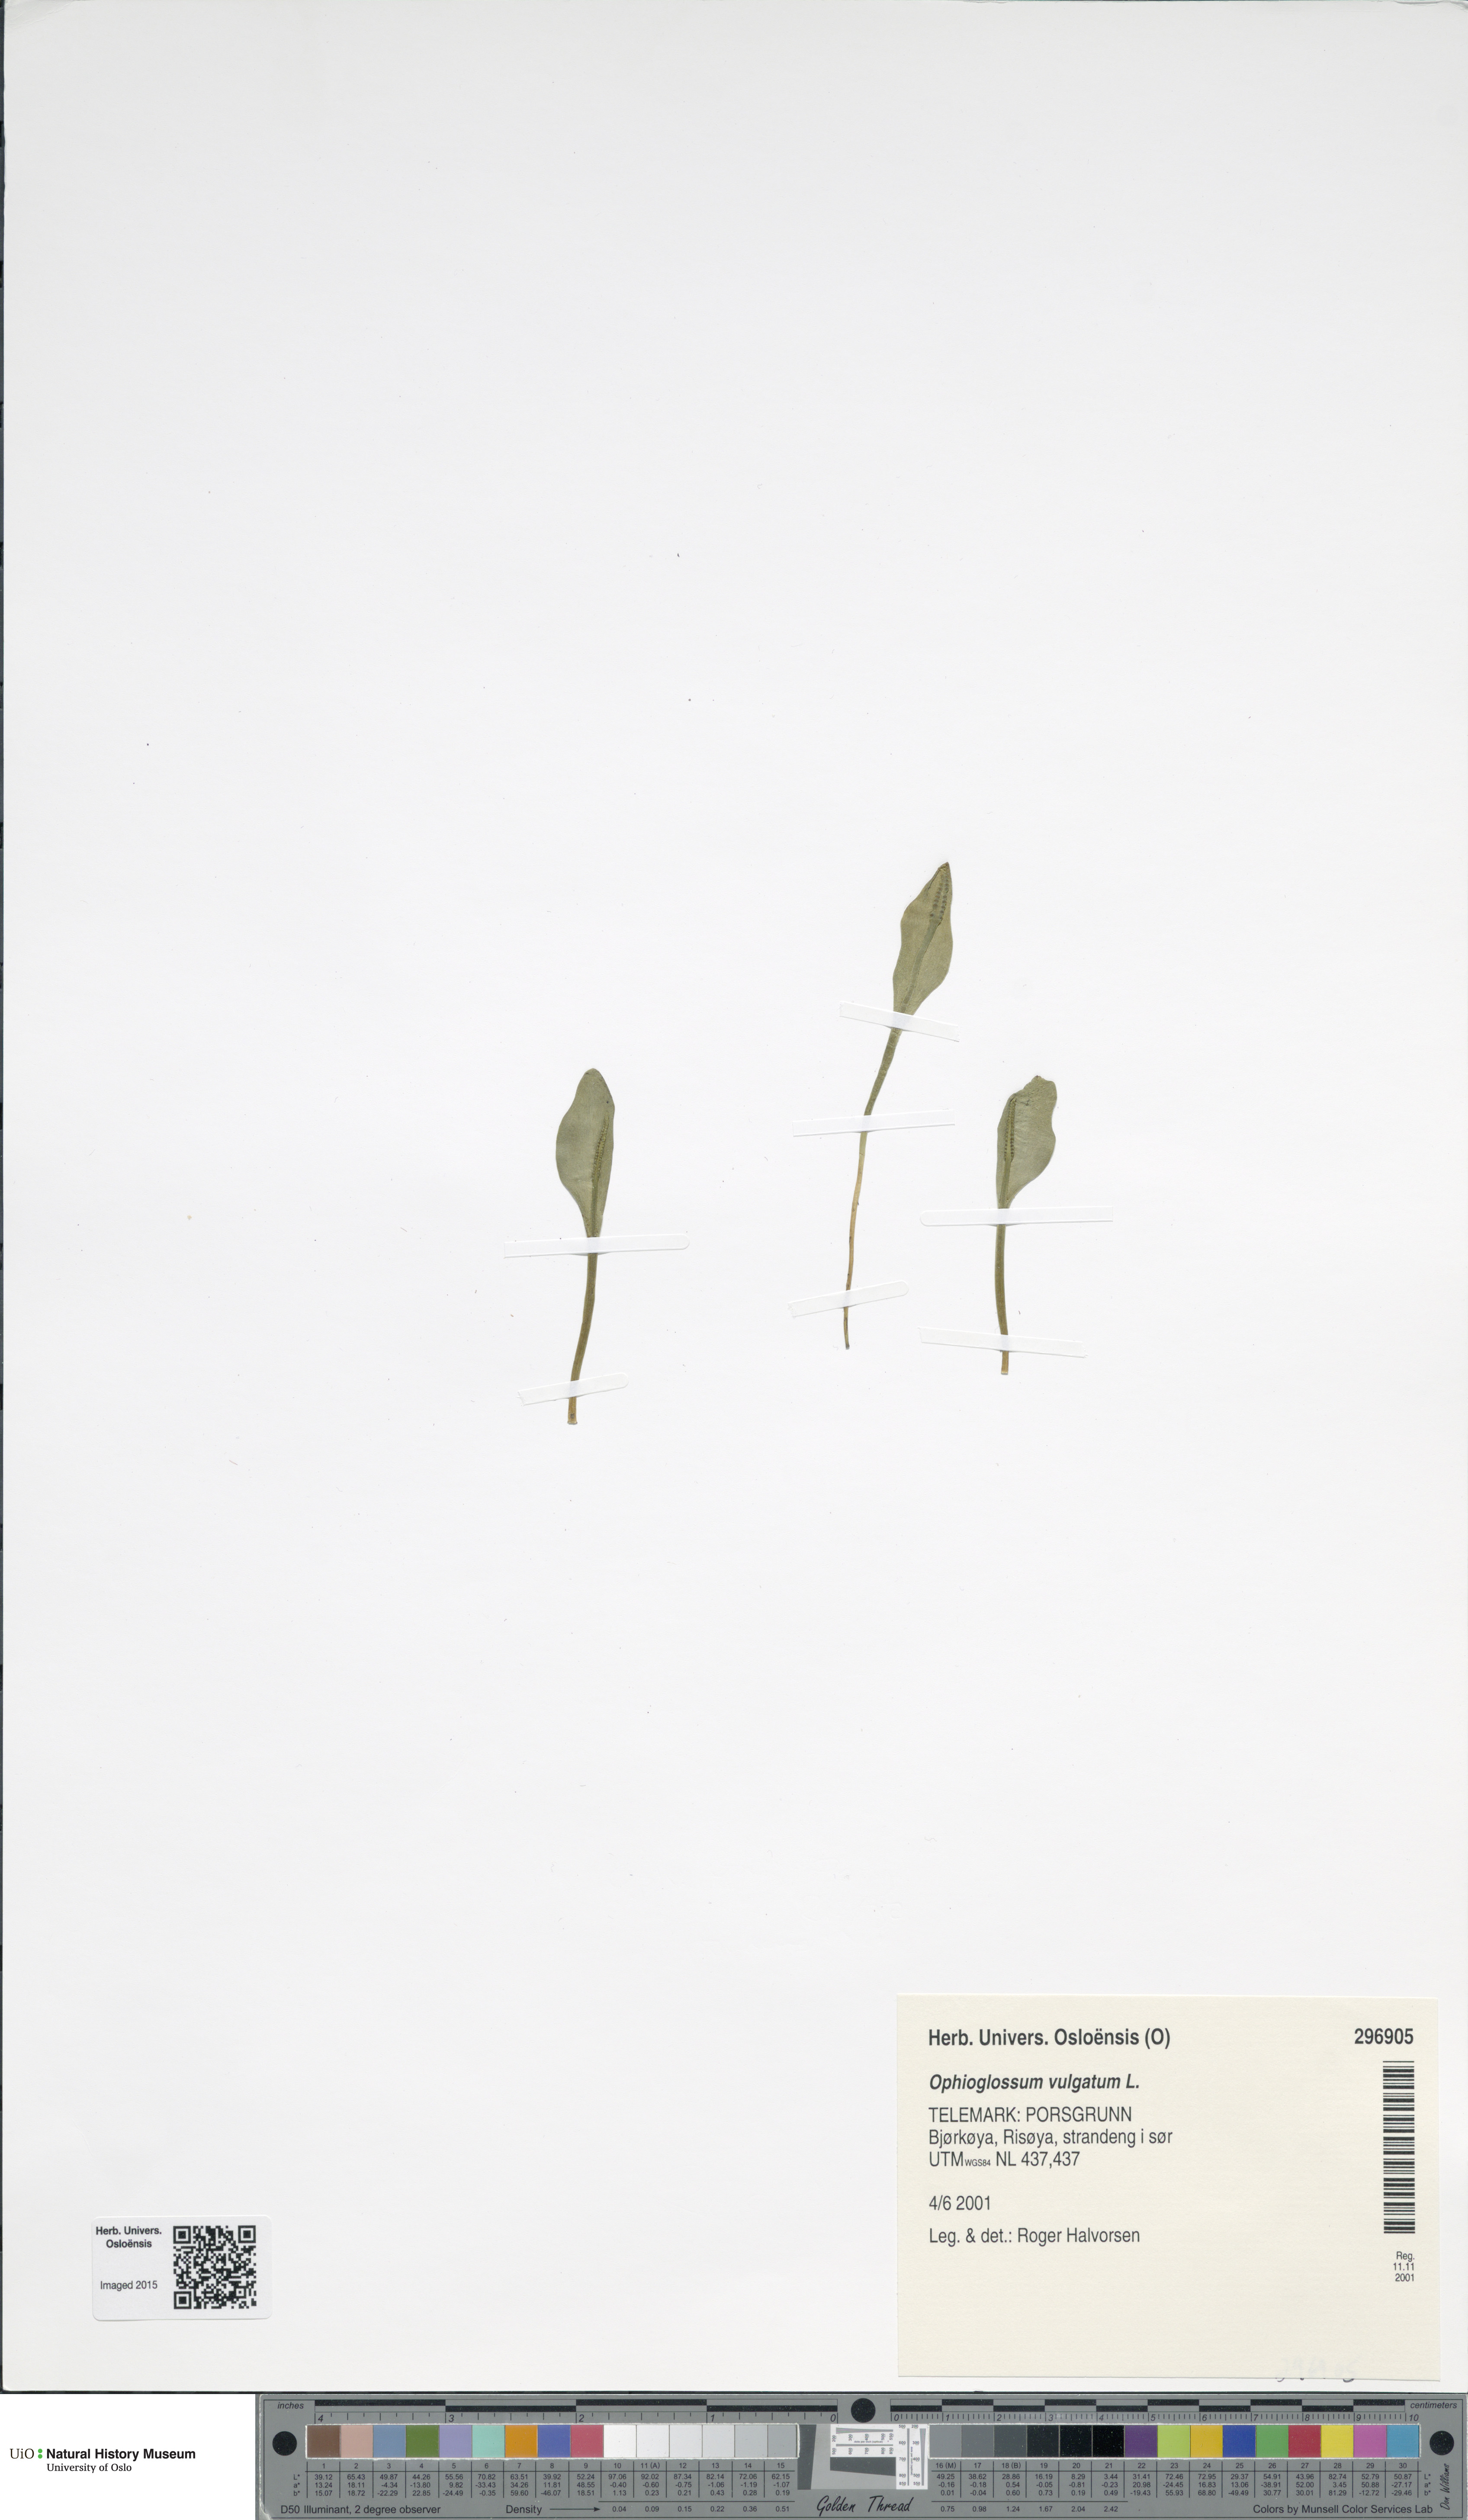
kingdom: Plantae
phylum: Tracheophyta
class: Polypodiopsida
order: Ophioglossales
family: Ophioglossaceae
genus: Ophioglossum
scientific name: Ophioglossum vulgatum
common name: Adder's-tongue
